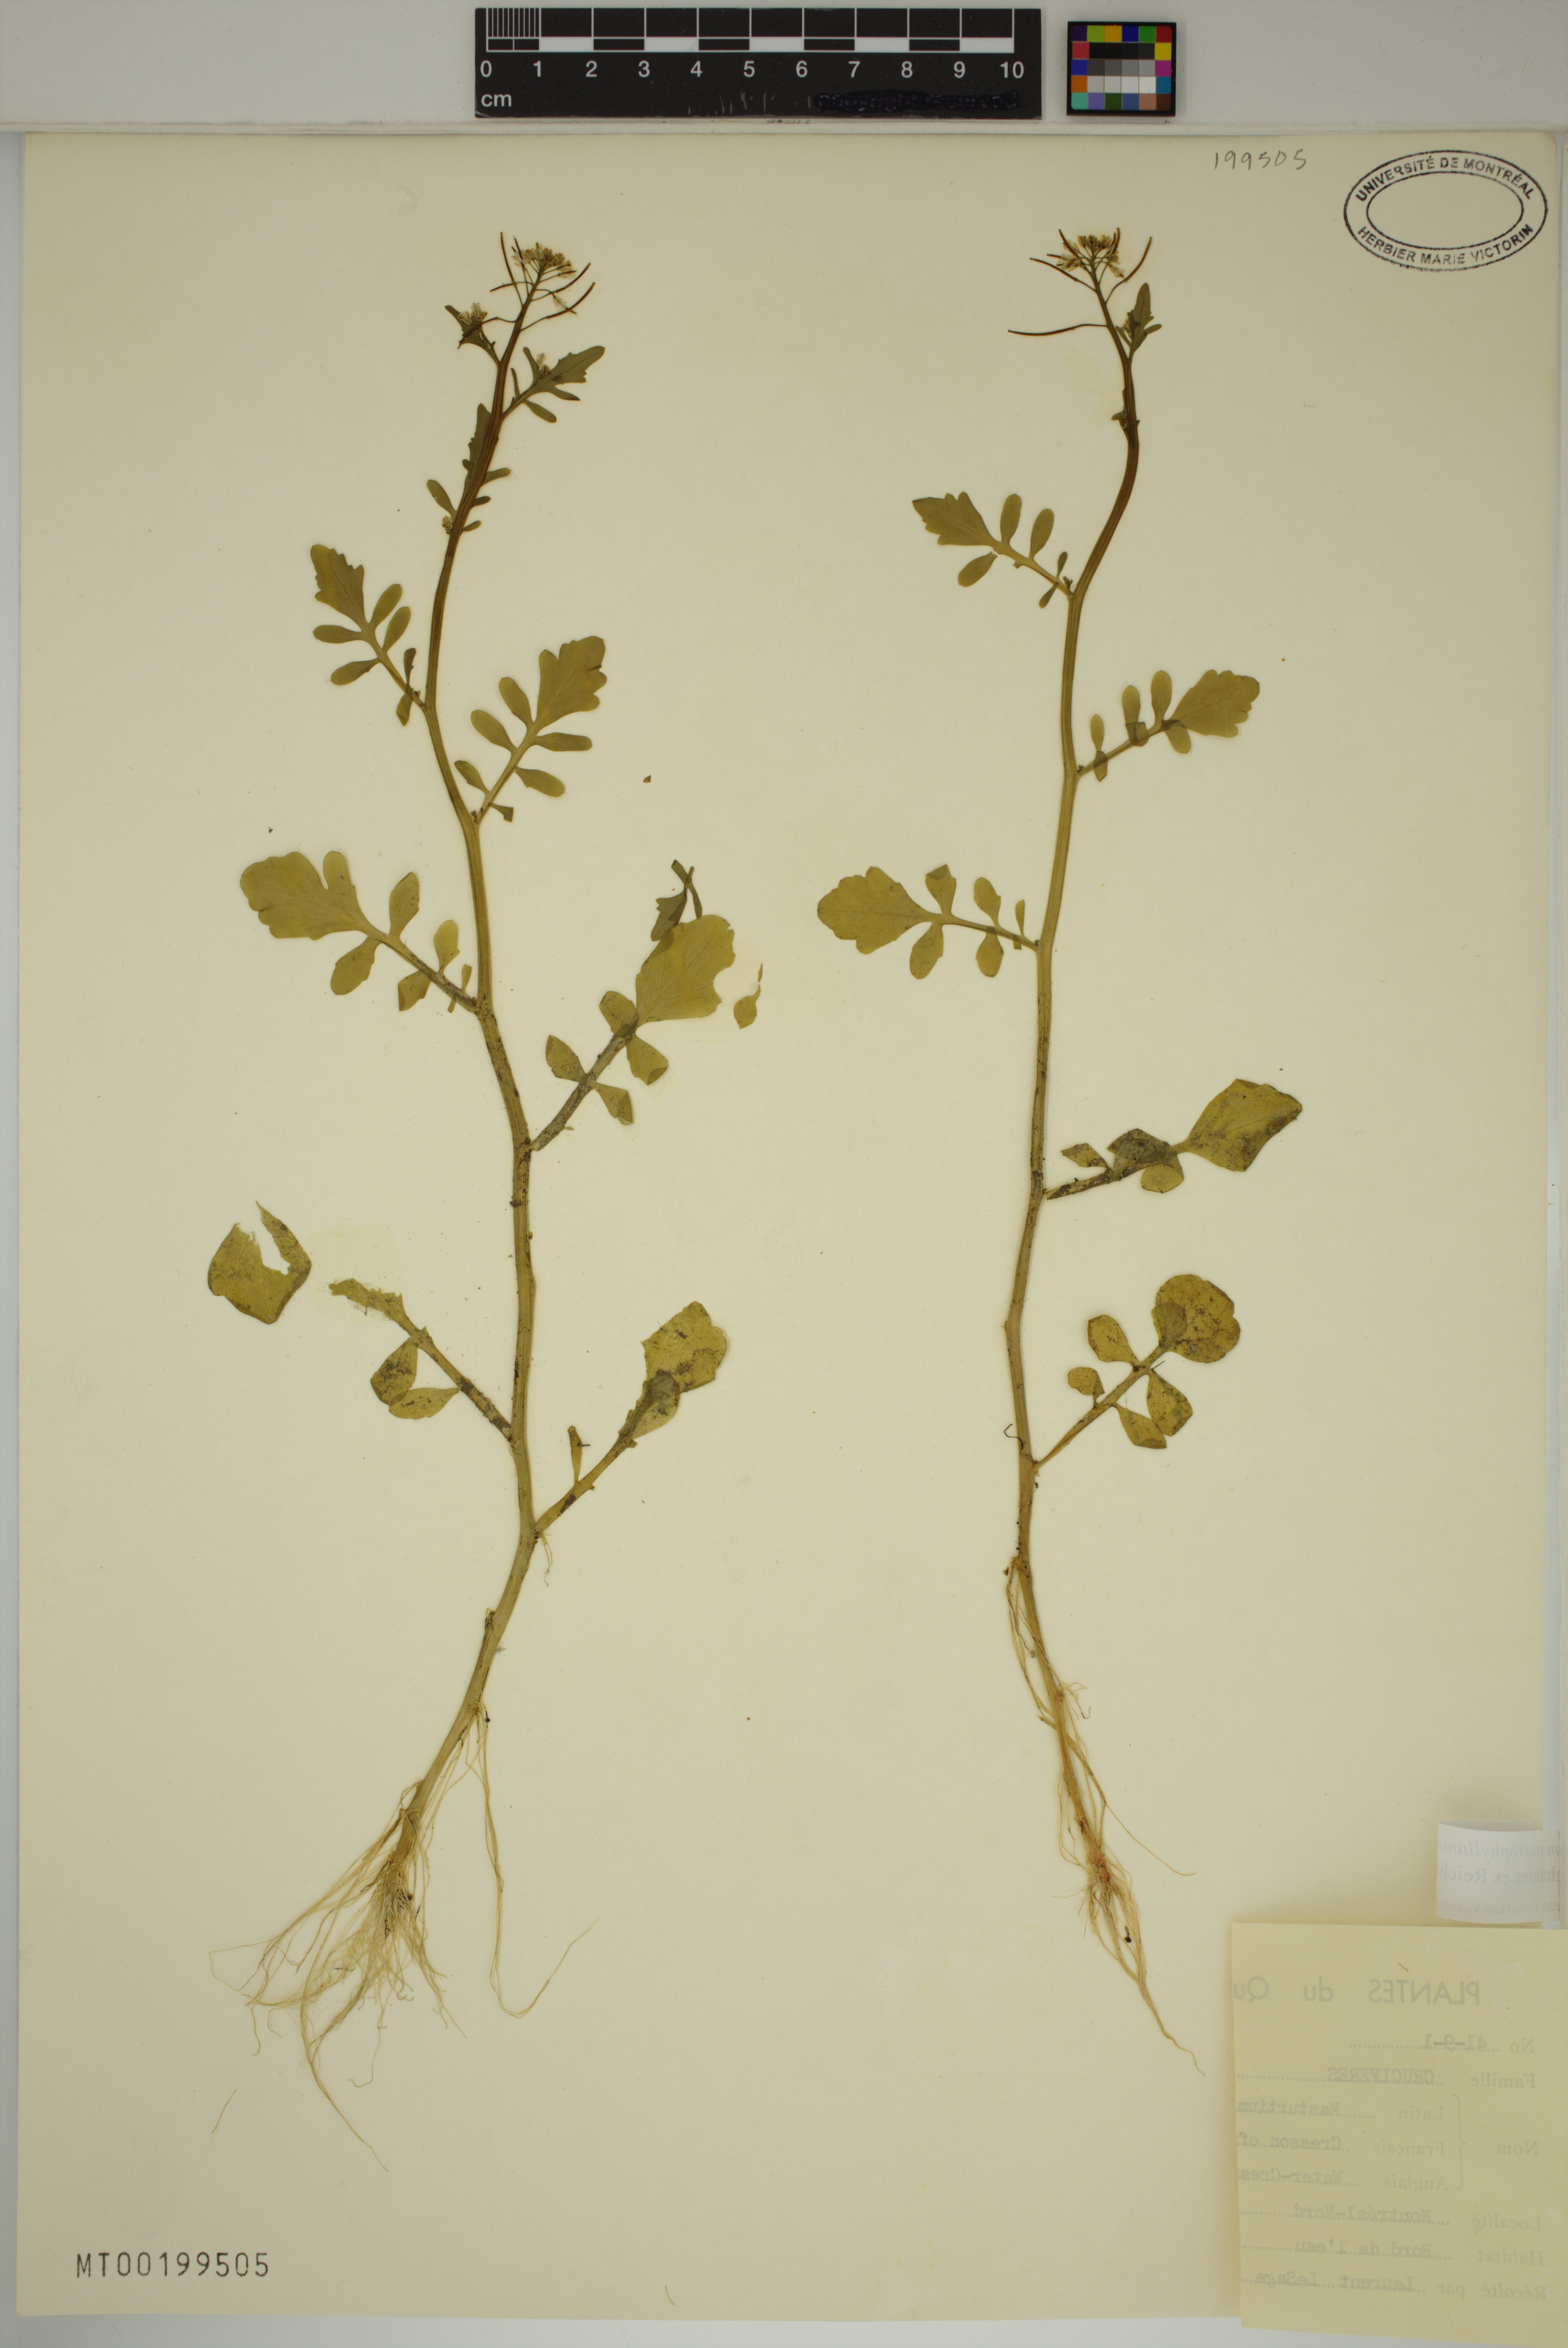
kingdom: Plantae
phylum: Tracheophyta
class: Magnoliopsida
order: Brassicales
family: Brassicaceae
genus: Nasturtium
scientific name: Nasturtium microphyllum
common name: Onerow yellowcress
